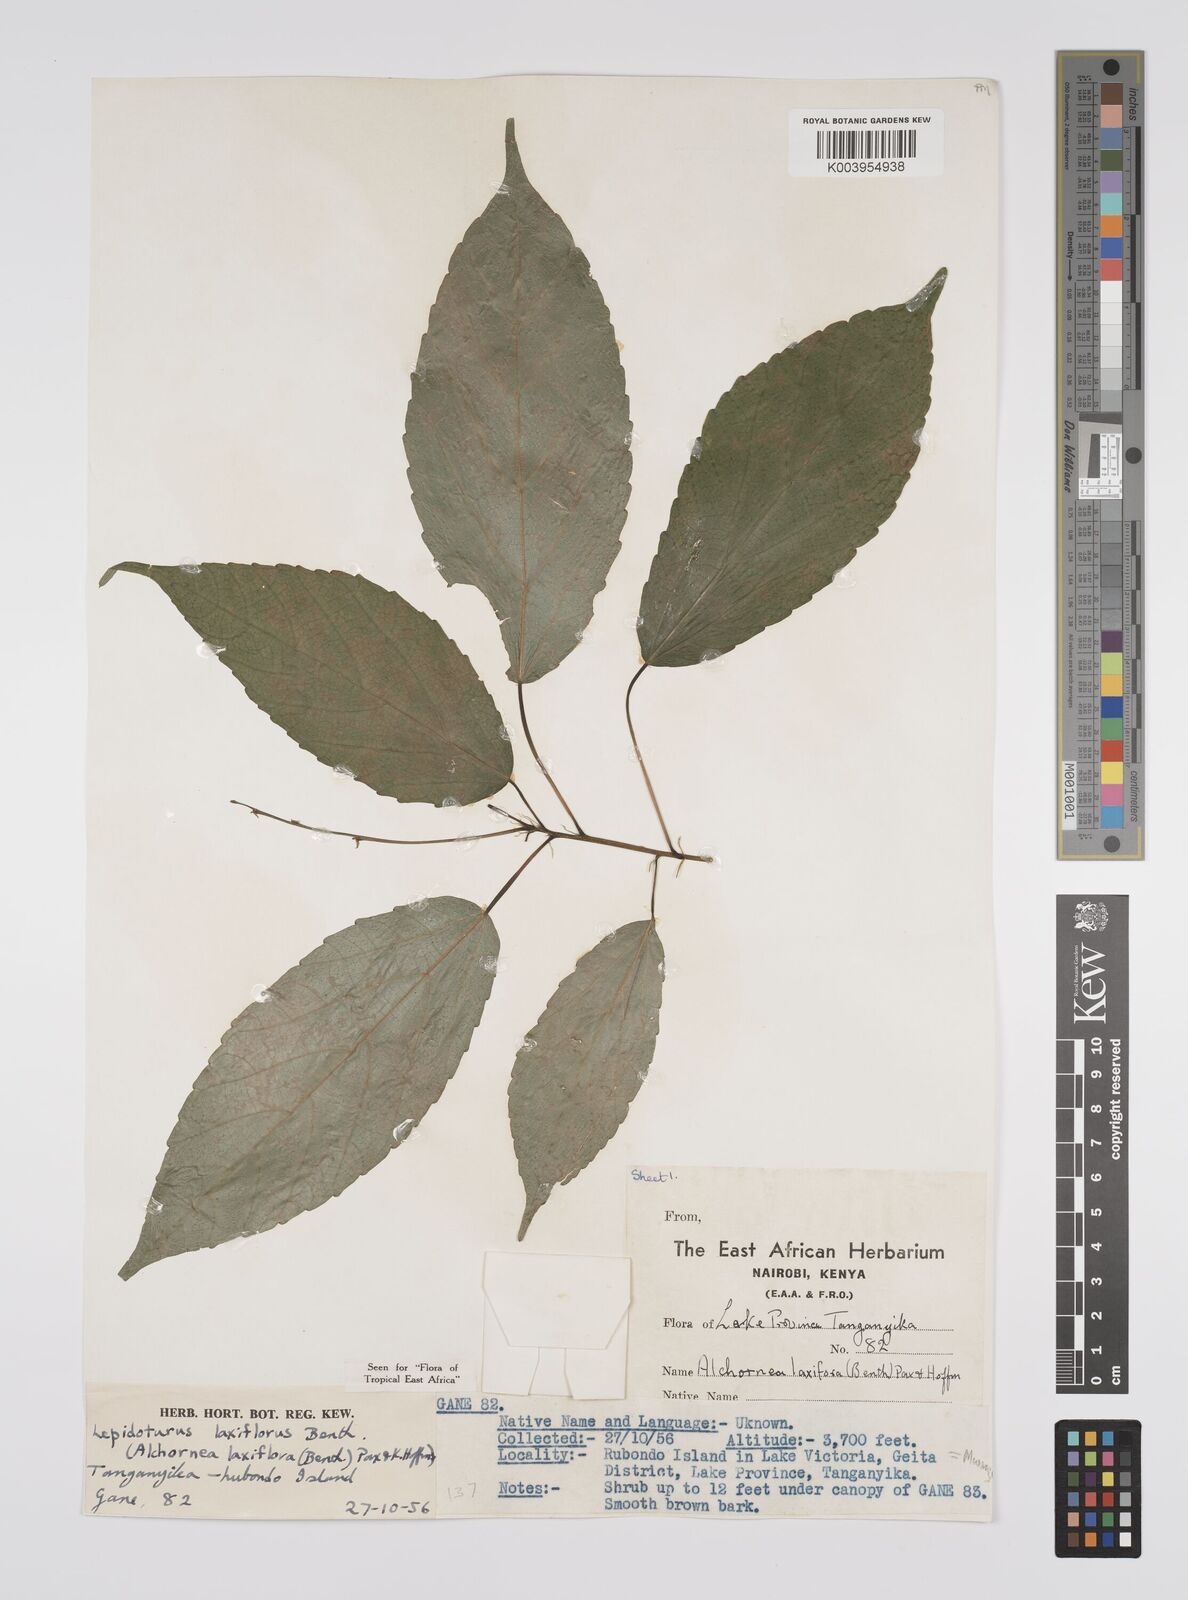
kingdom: Plantae
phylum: Tracheophyta
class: Magnoliopsida
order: Malpighiales
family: Euphorbiaceae
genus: Alchornea
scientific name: Alchornea laxiflora
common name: Lowveld bead-string
